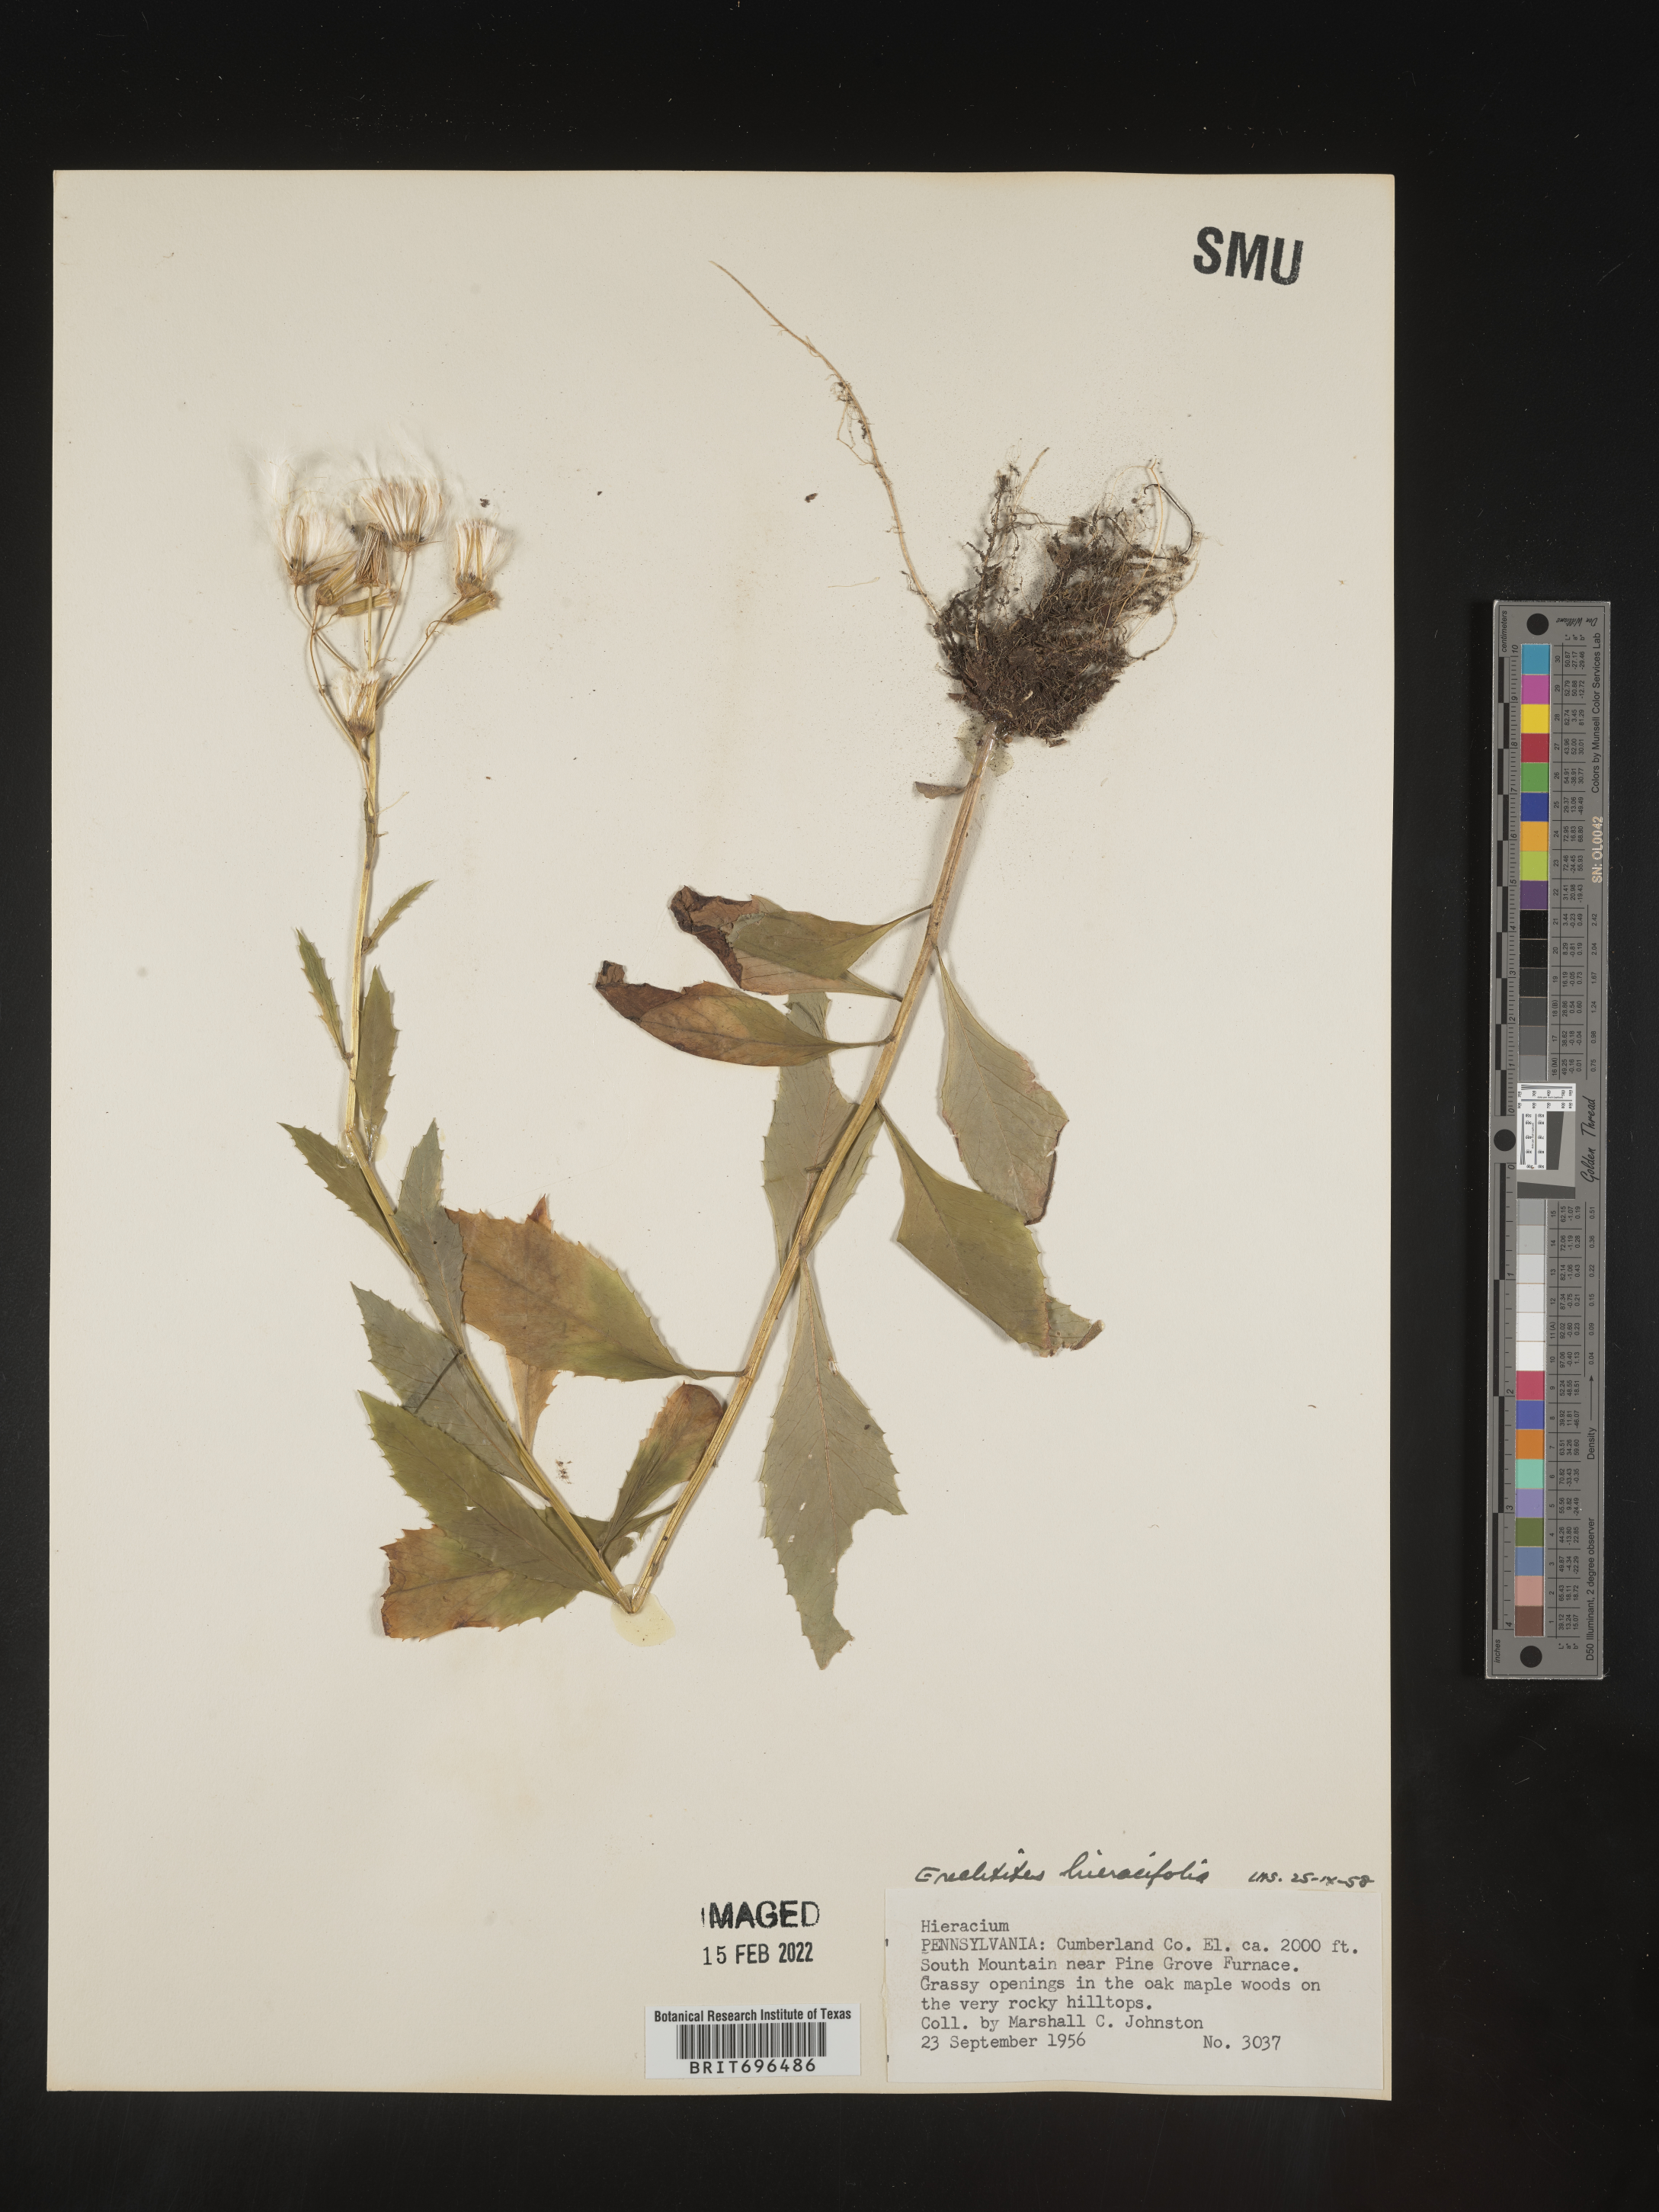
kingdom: Plantae
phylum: Tracheophyta
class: Magnoliopsida
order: Asterales
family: Asteraceae
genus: Erechtites
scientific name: Erechtites hieraciifolius
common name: American burnweed
